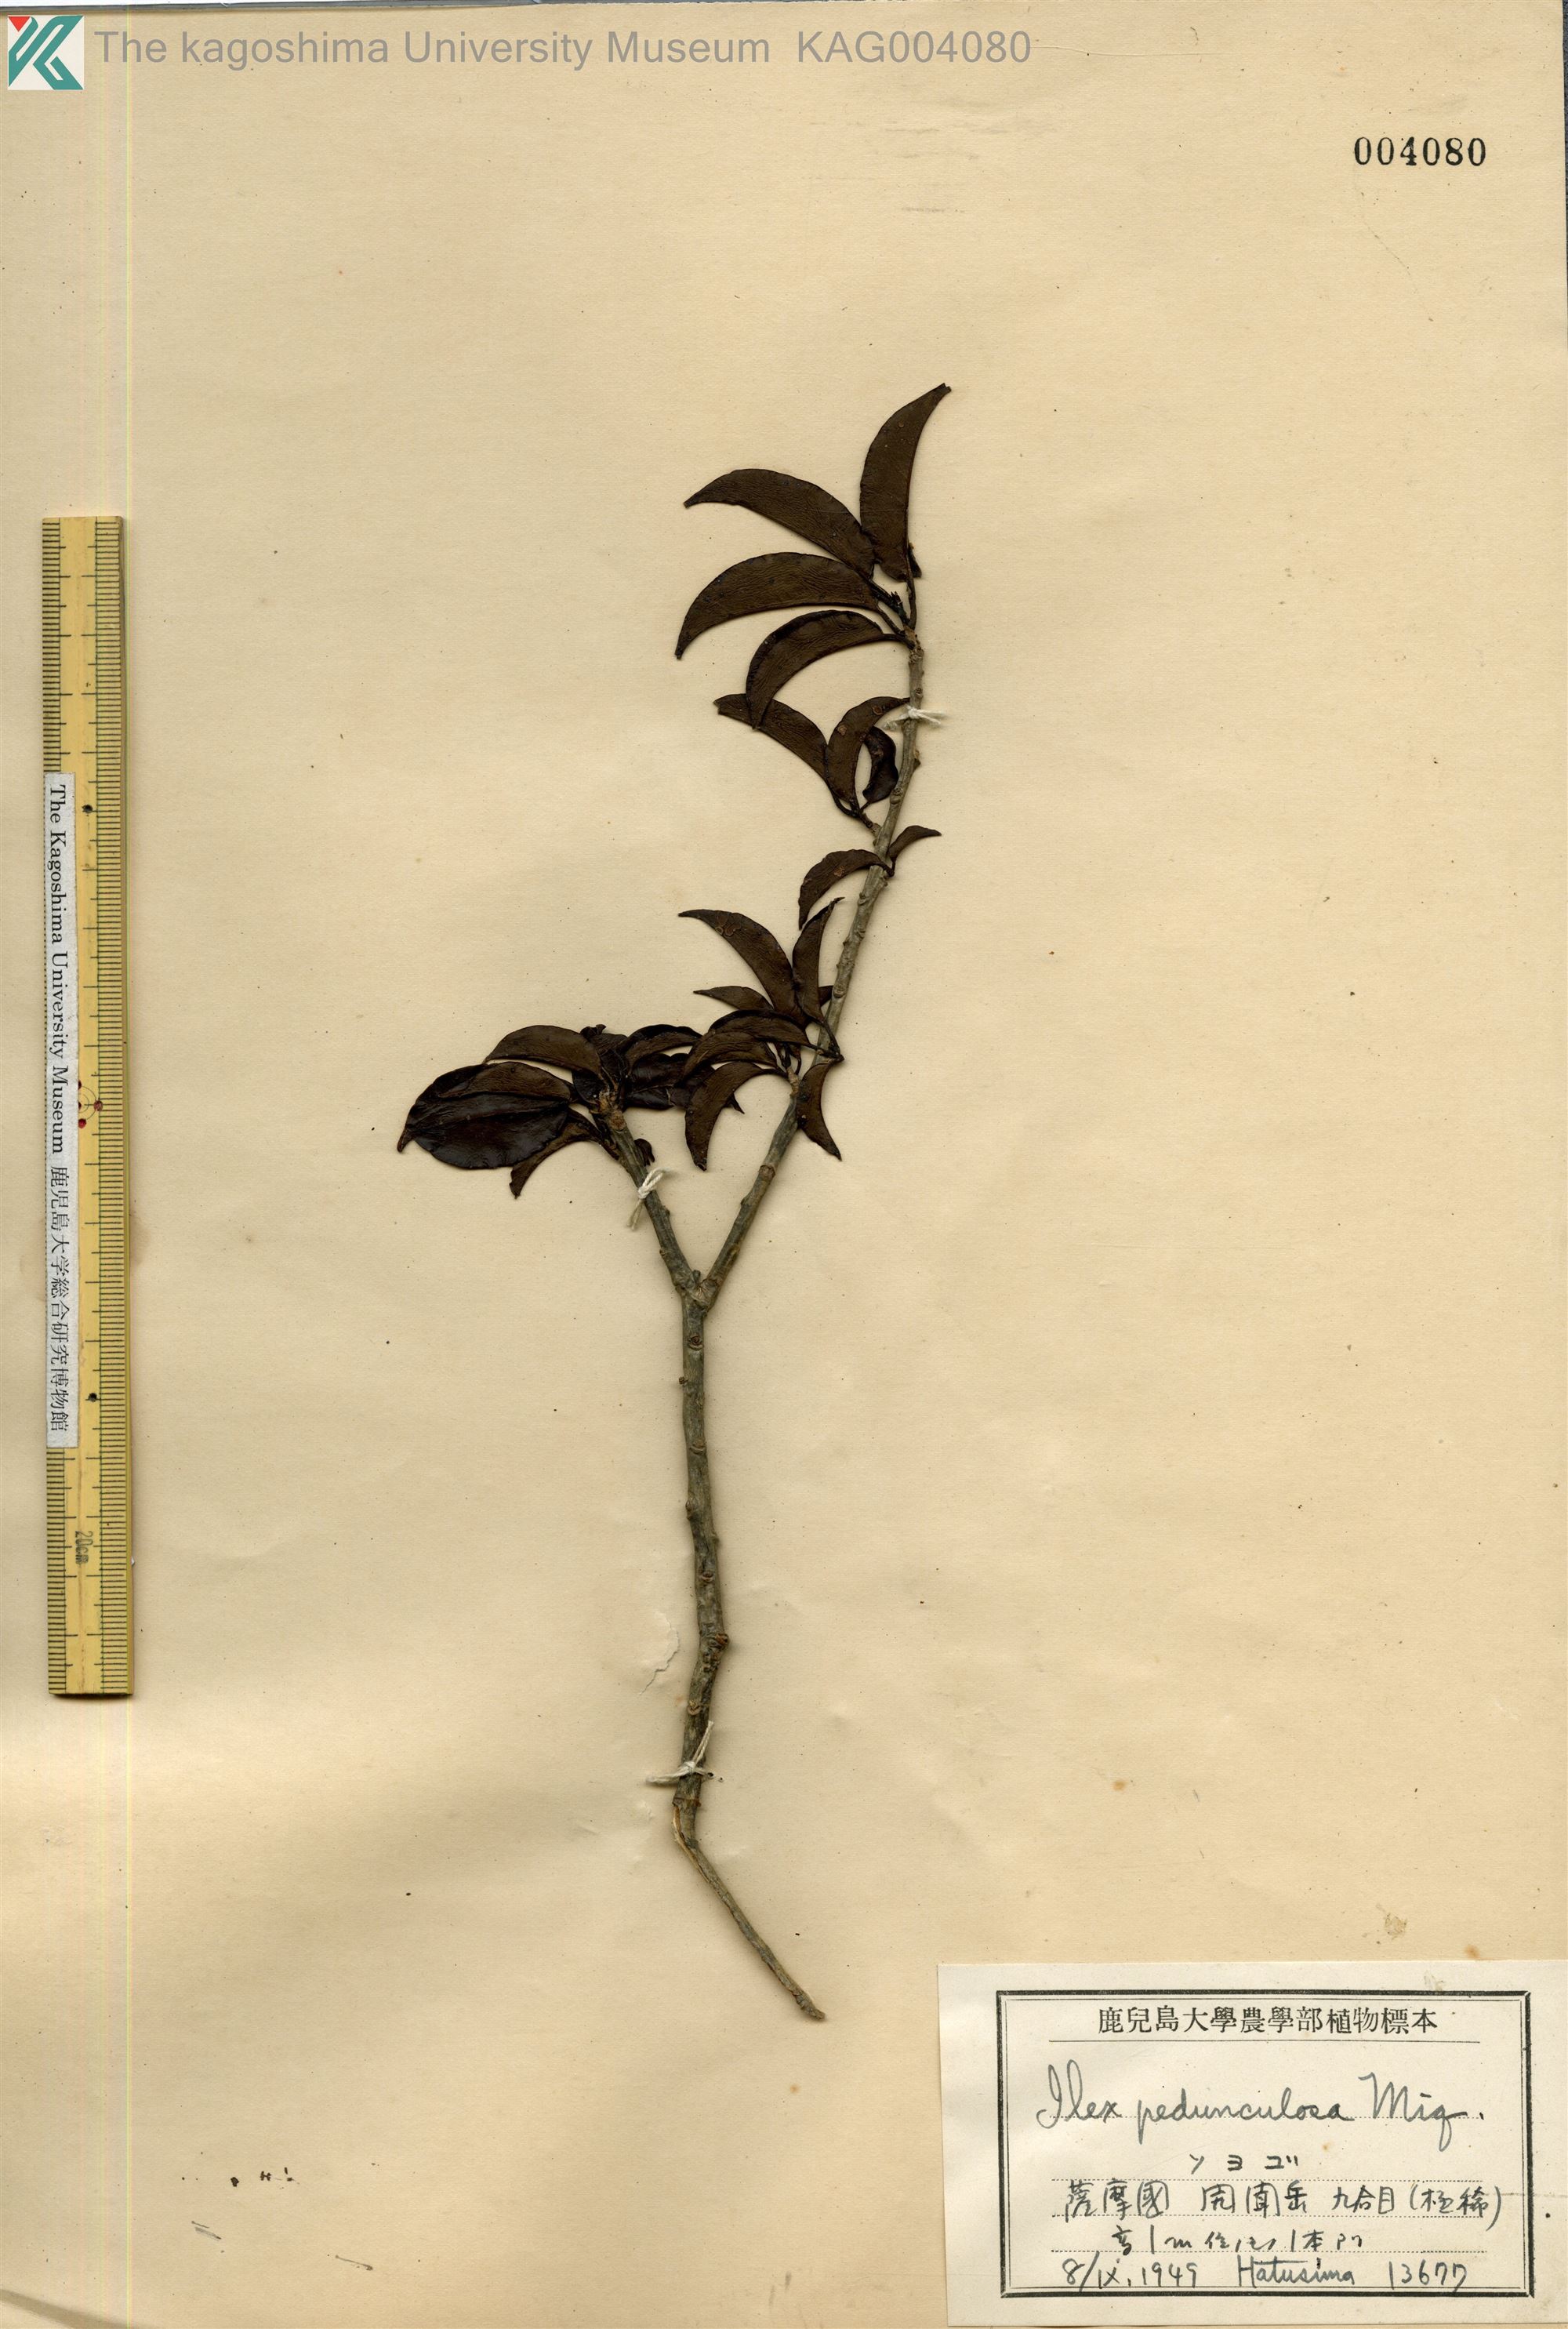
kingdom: Plantae
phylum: Tracheophyta
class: Magnoliopsida
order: Aquifoliales
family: Aquifoliaceae
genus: Ilex
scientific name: Ilex pedunculosa
